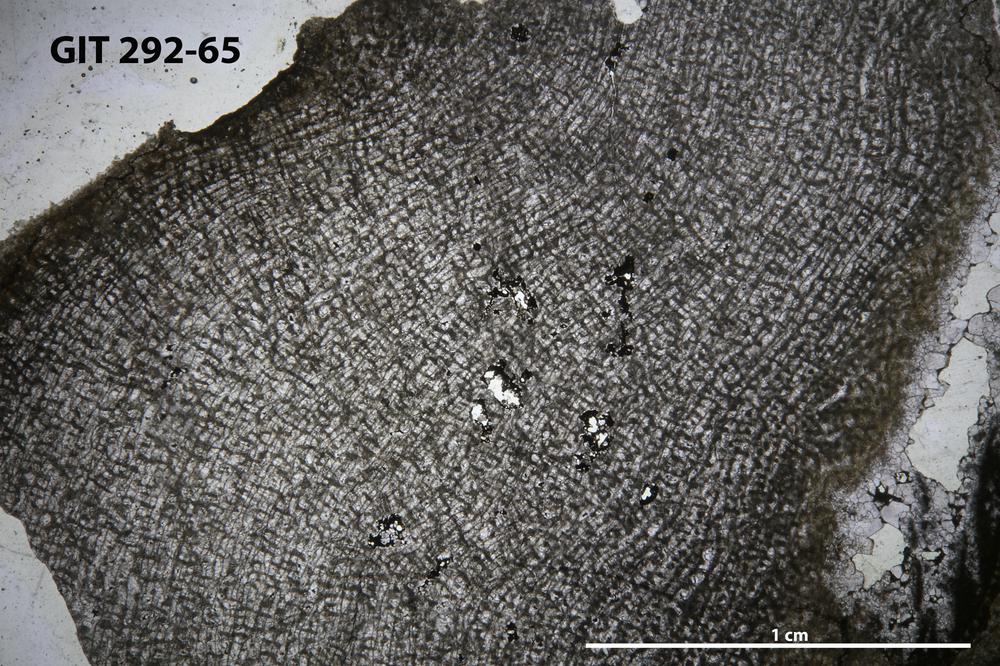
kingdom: Animalia
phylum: Porifera
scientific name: Porifera
